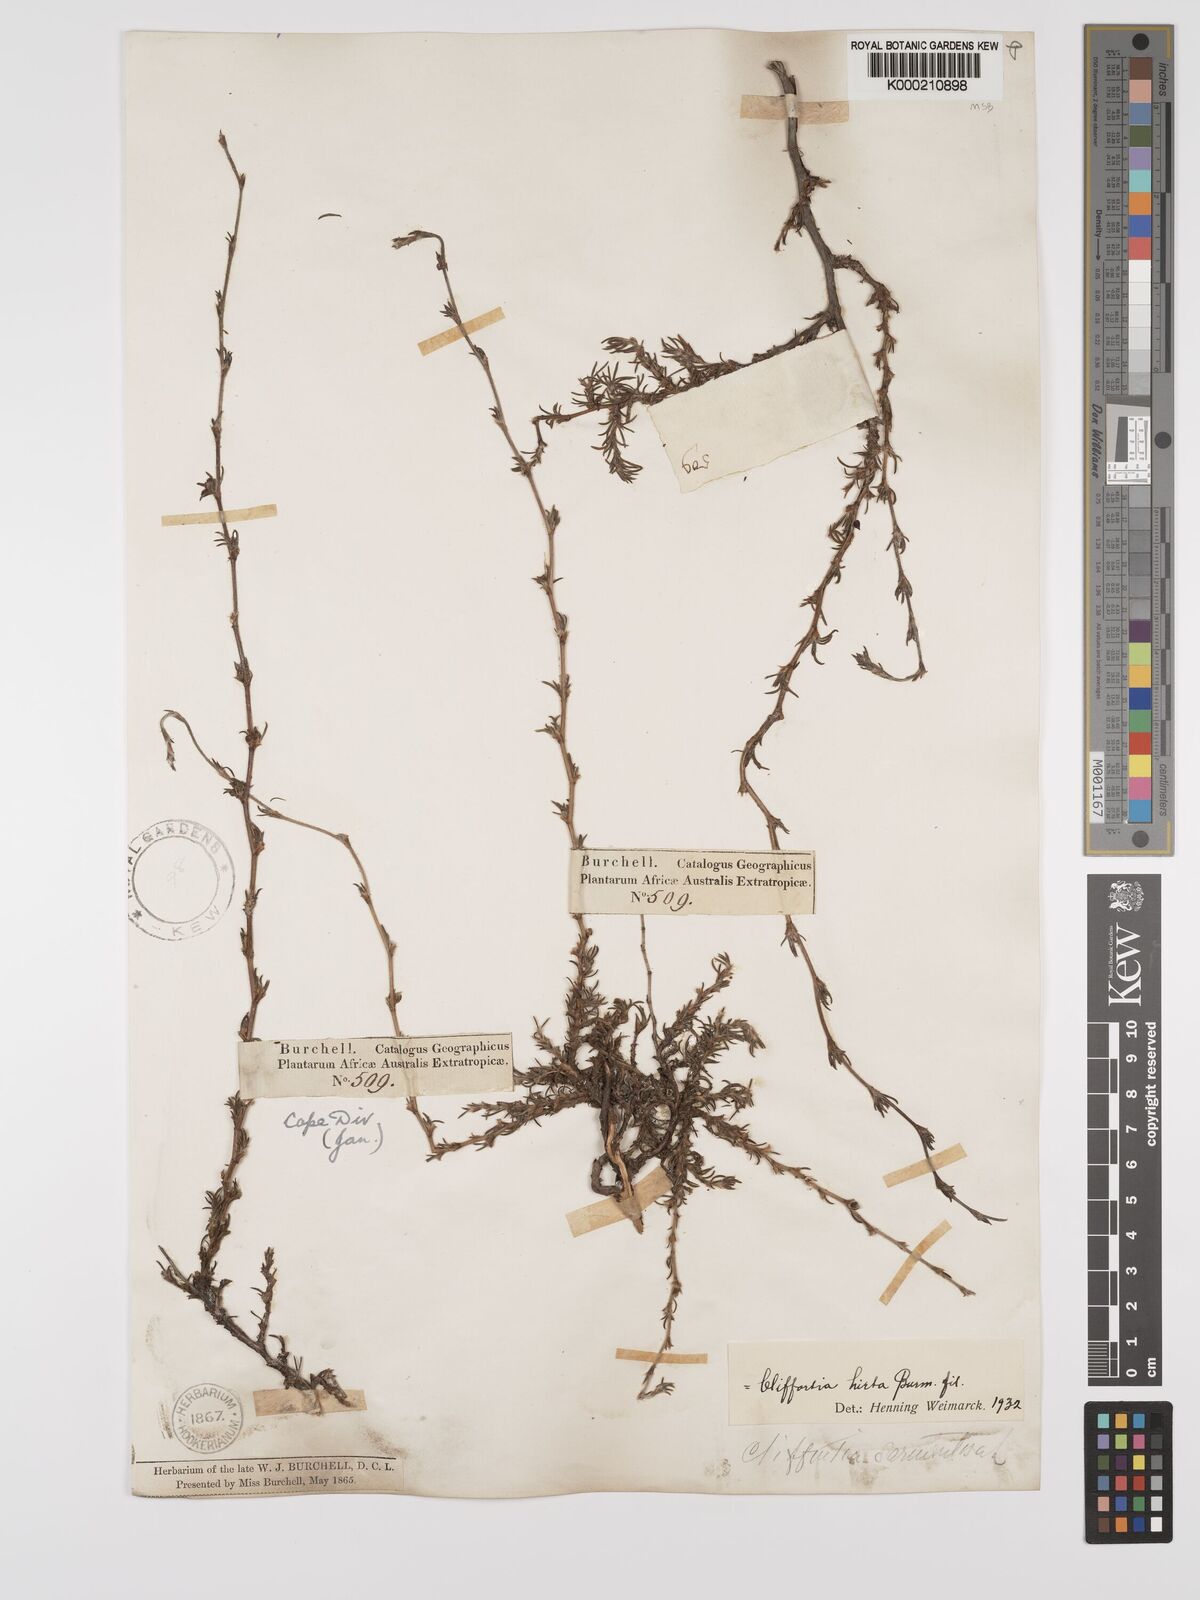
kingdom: Plantae
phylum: Tracheophyta
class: Magnoliopsida
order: Rosales
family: Rosaceae
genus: Cliffortia
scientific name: Cliffortia hirta
